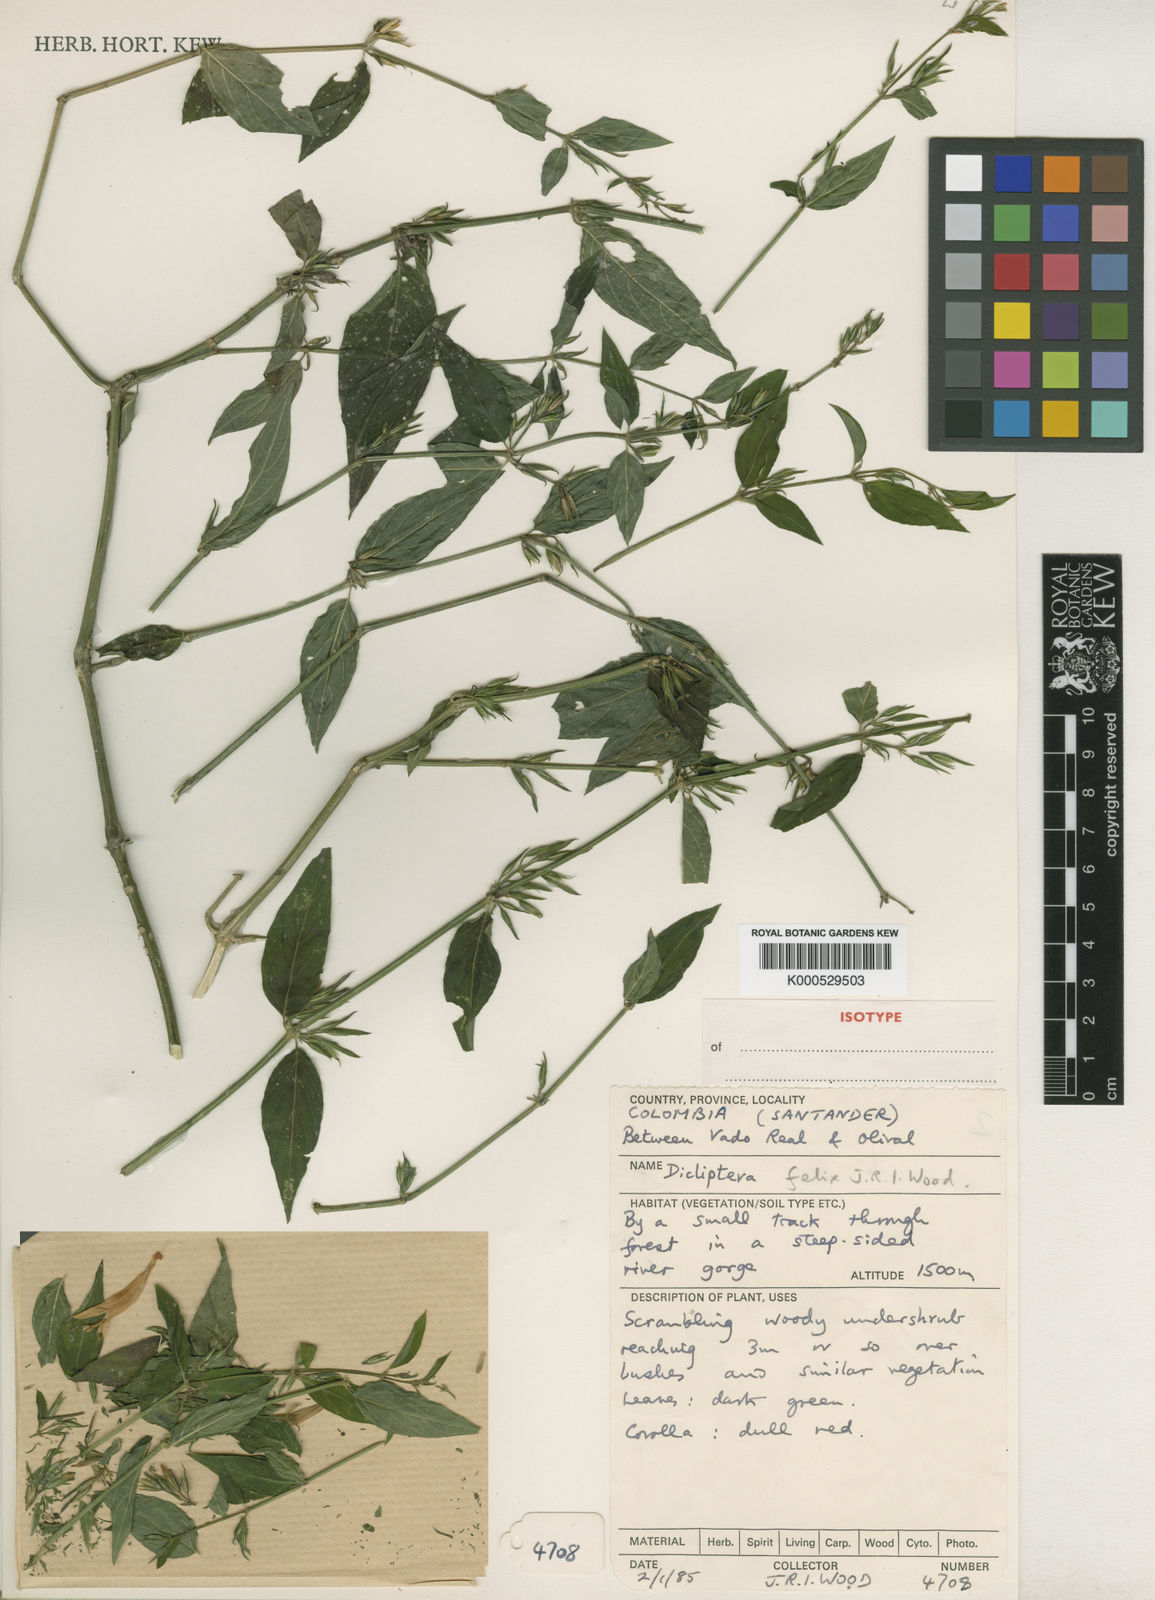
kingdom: Plantae
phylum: Tracheophyta
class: Magnoliopsida
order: Lamiales
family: Acanthaceae
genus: Dicliptera
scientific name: Dicliptera felix
